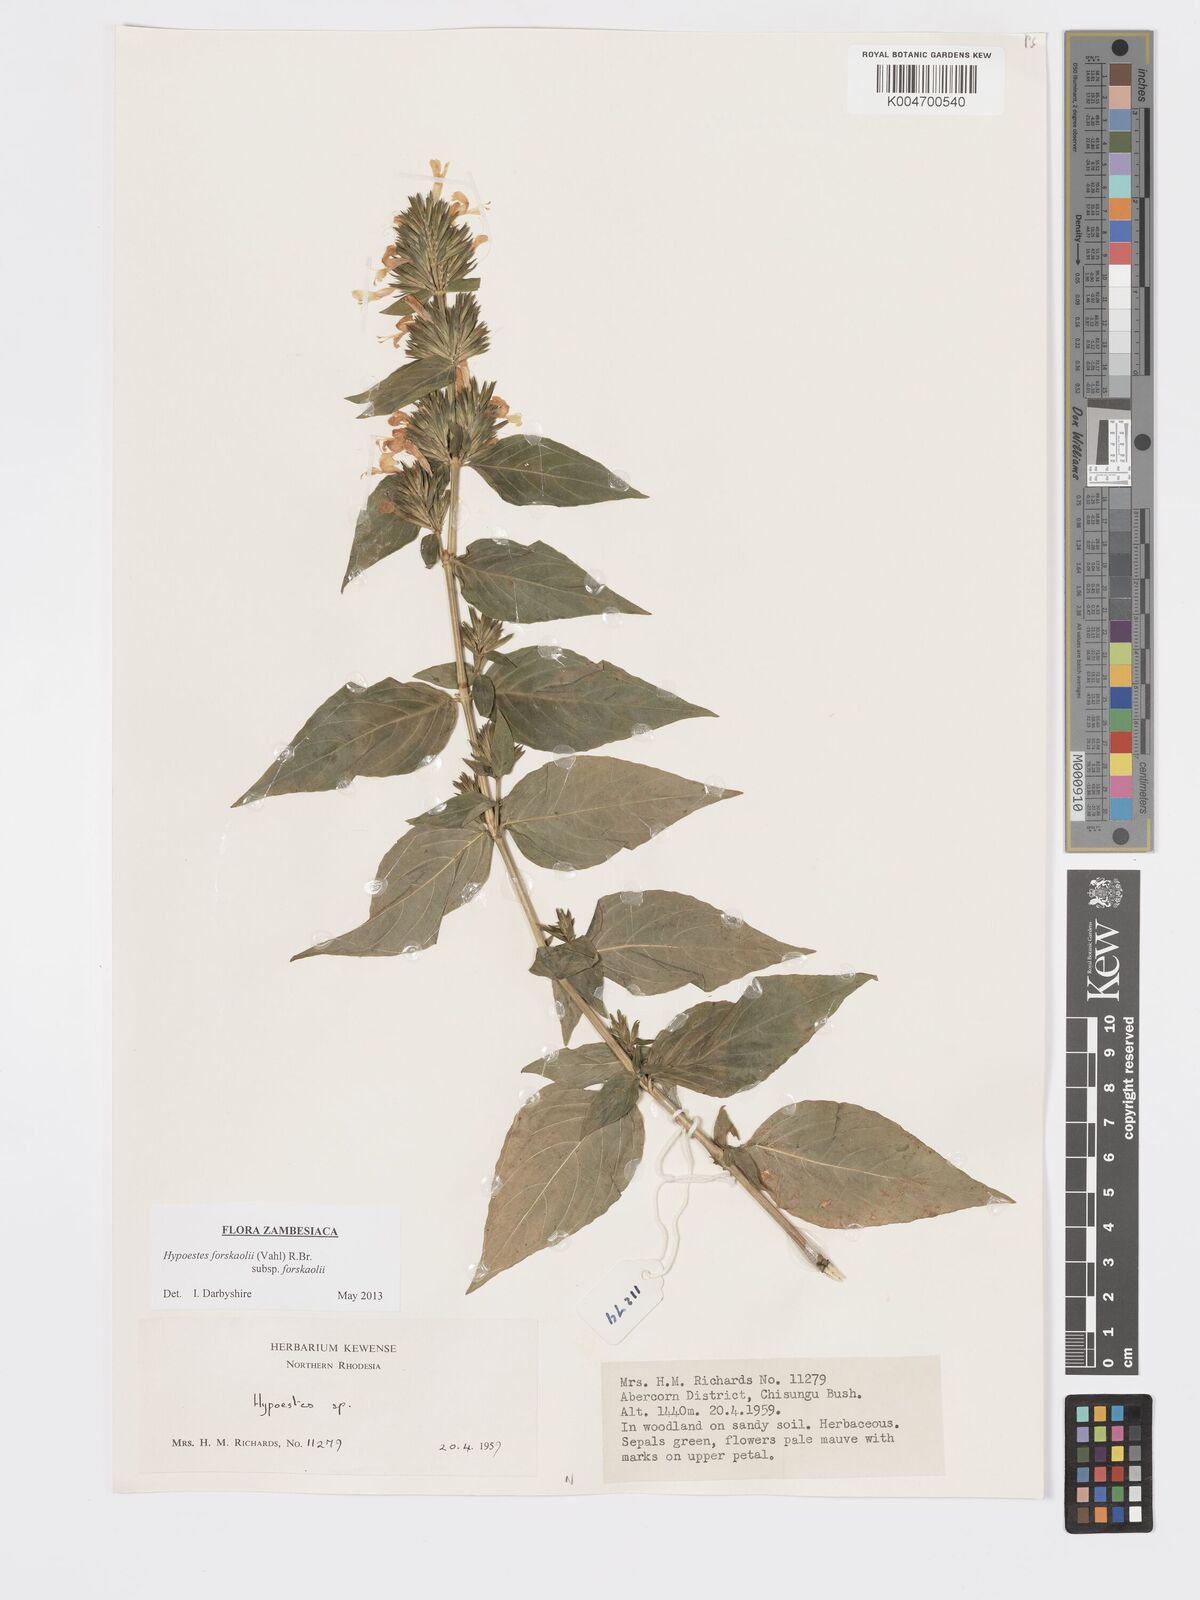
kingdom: Plantae
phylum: Tracheophyta
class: Magnoliopsida
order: Lamiales
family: Acanthaceae
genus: Hypoestes
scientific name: Hypoestes forskaolii
